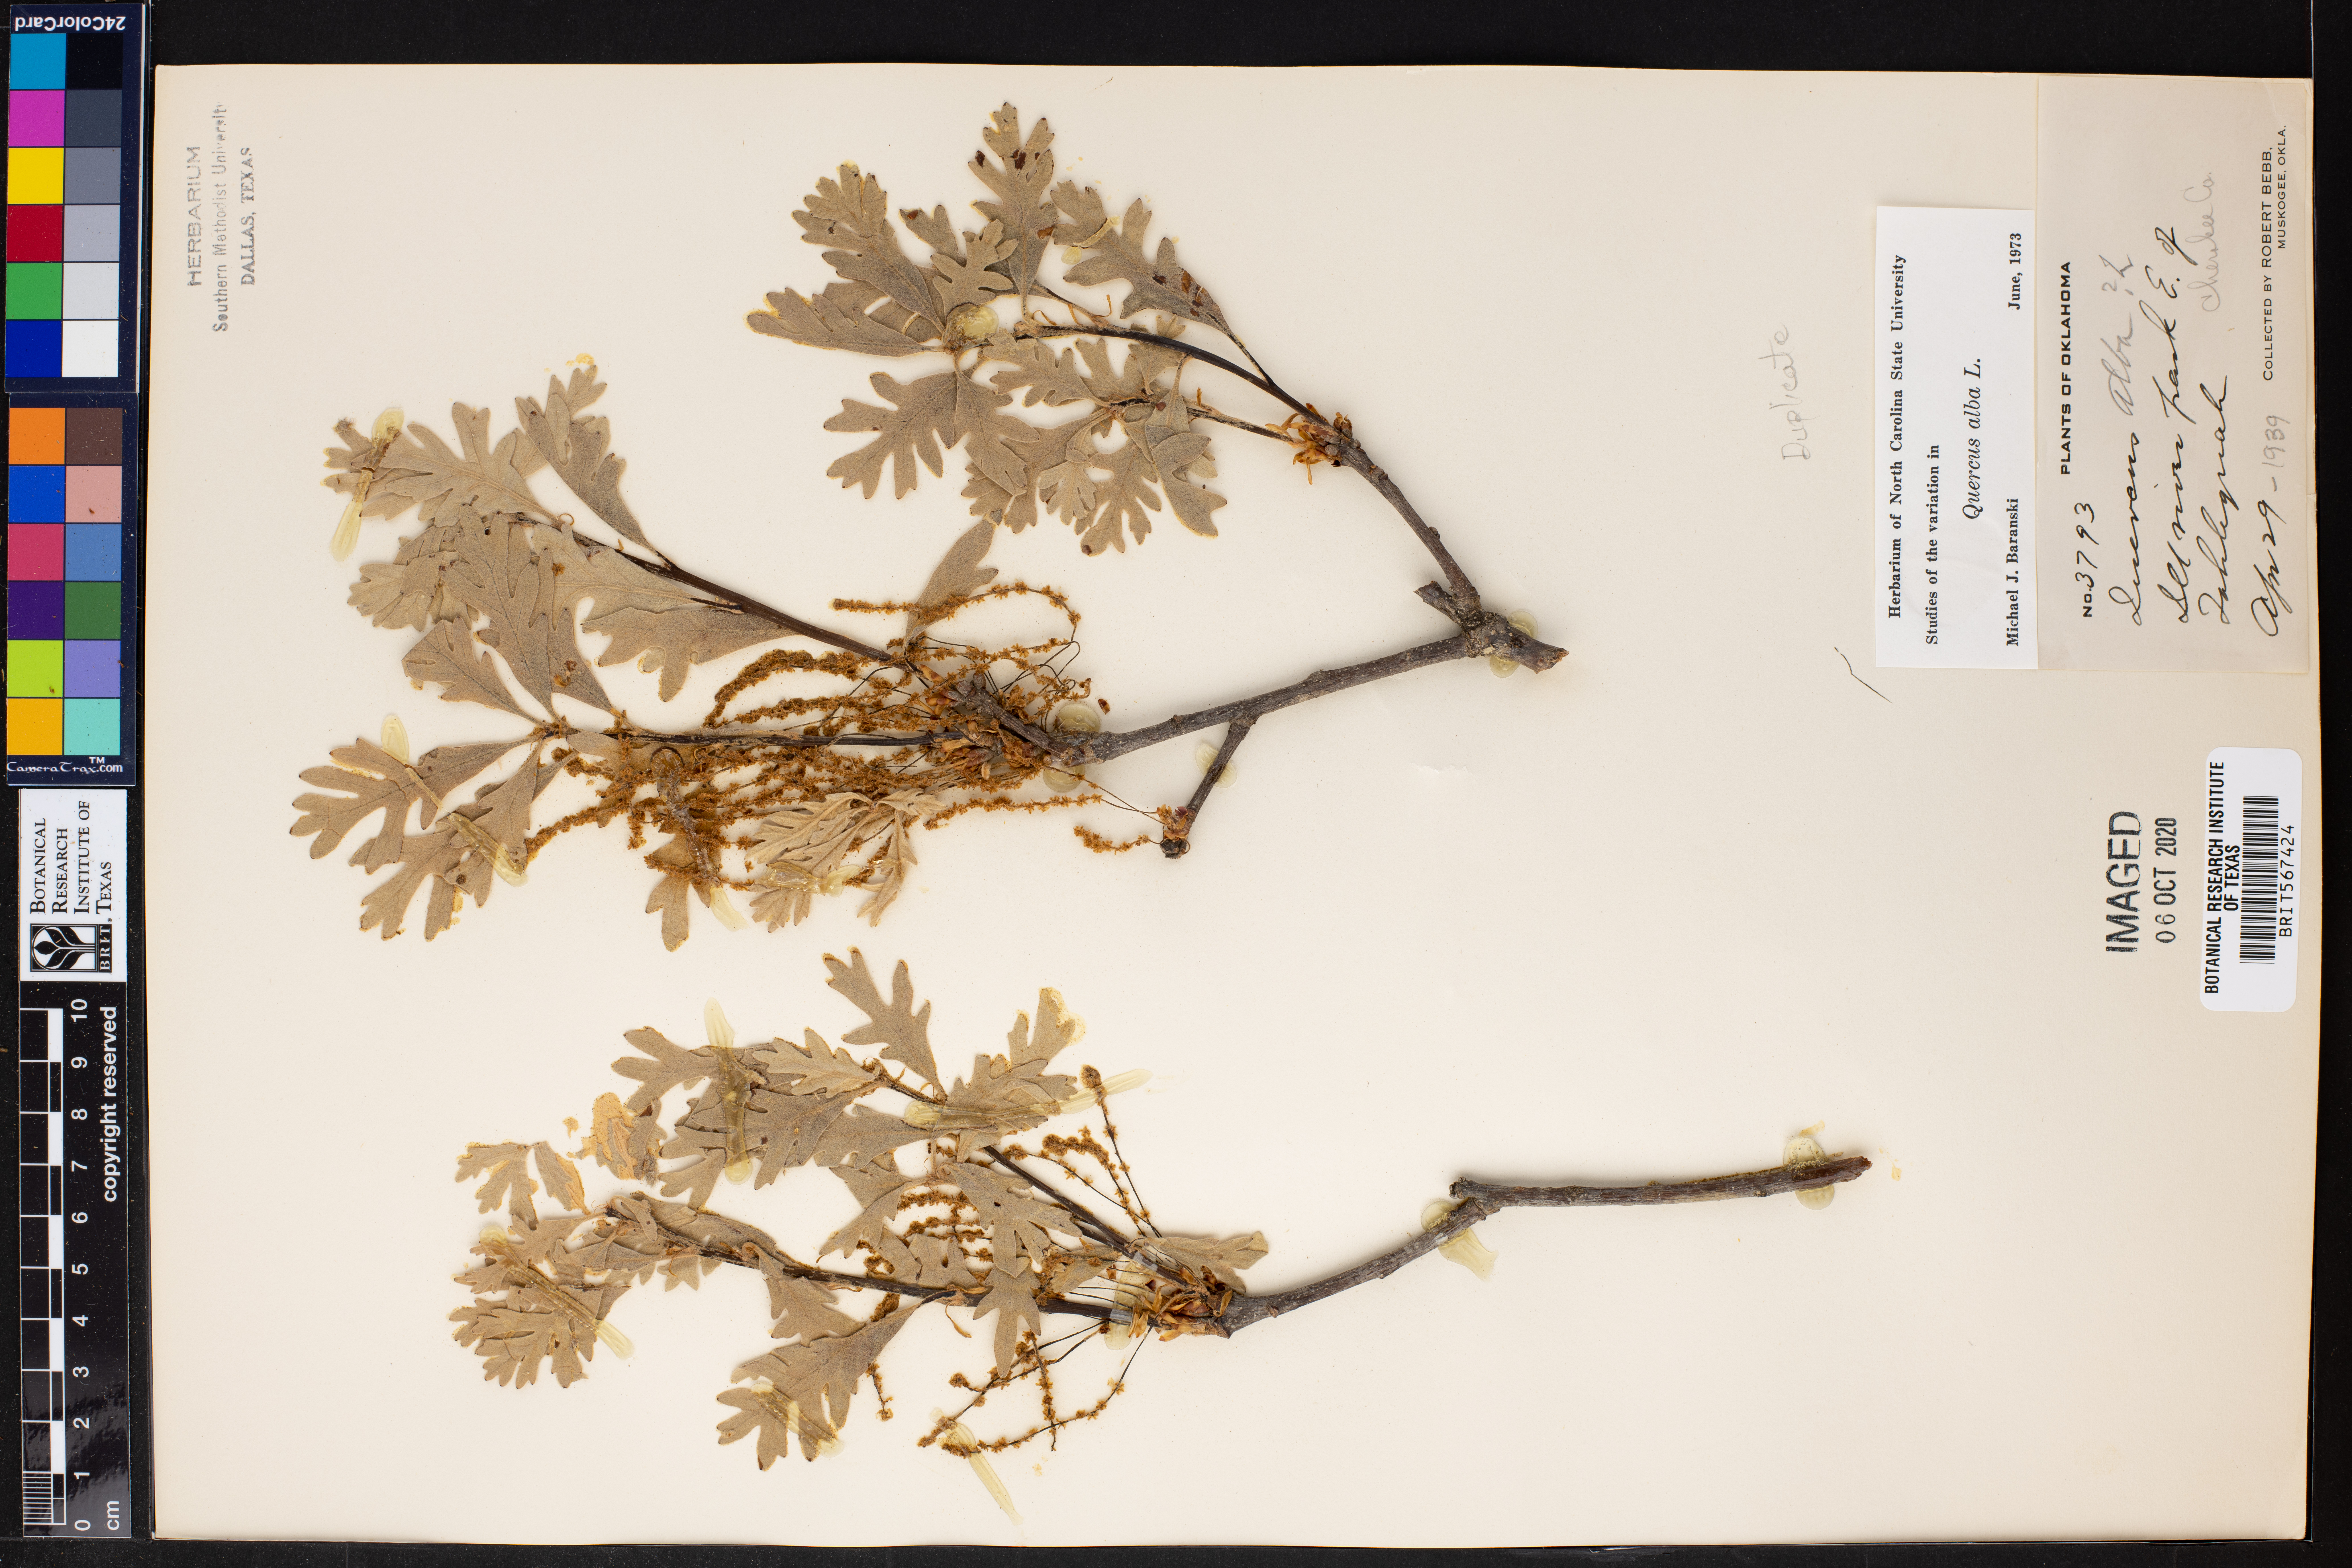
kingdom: Plantae
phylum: Tracheophyta
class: Magnoliopsida
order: Fagales
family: Fagaceae
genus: Quercus
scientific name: Quercus alba
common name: White oak
